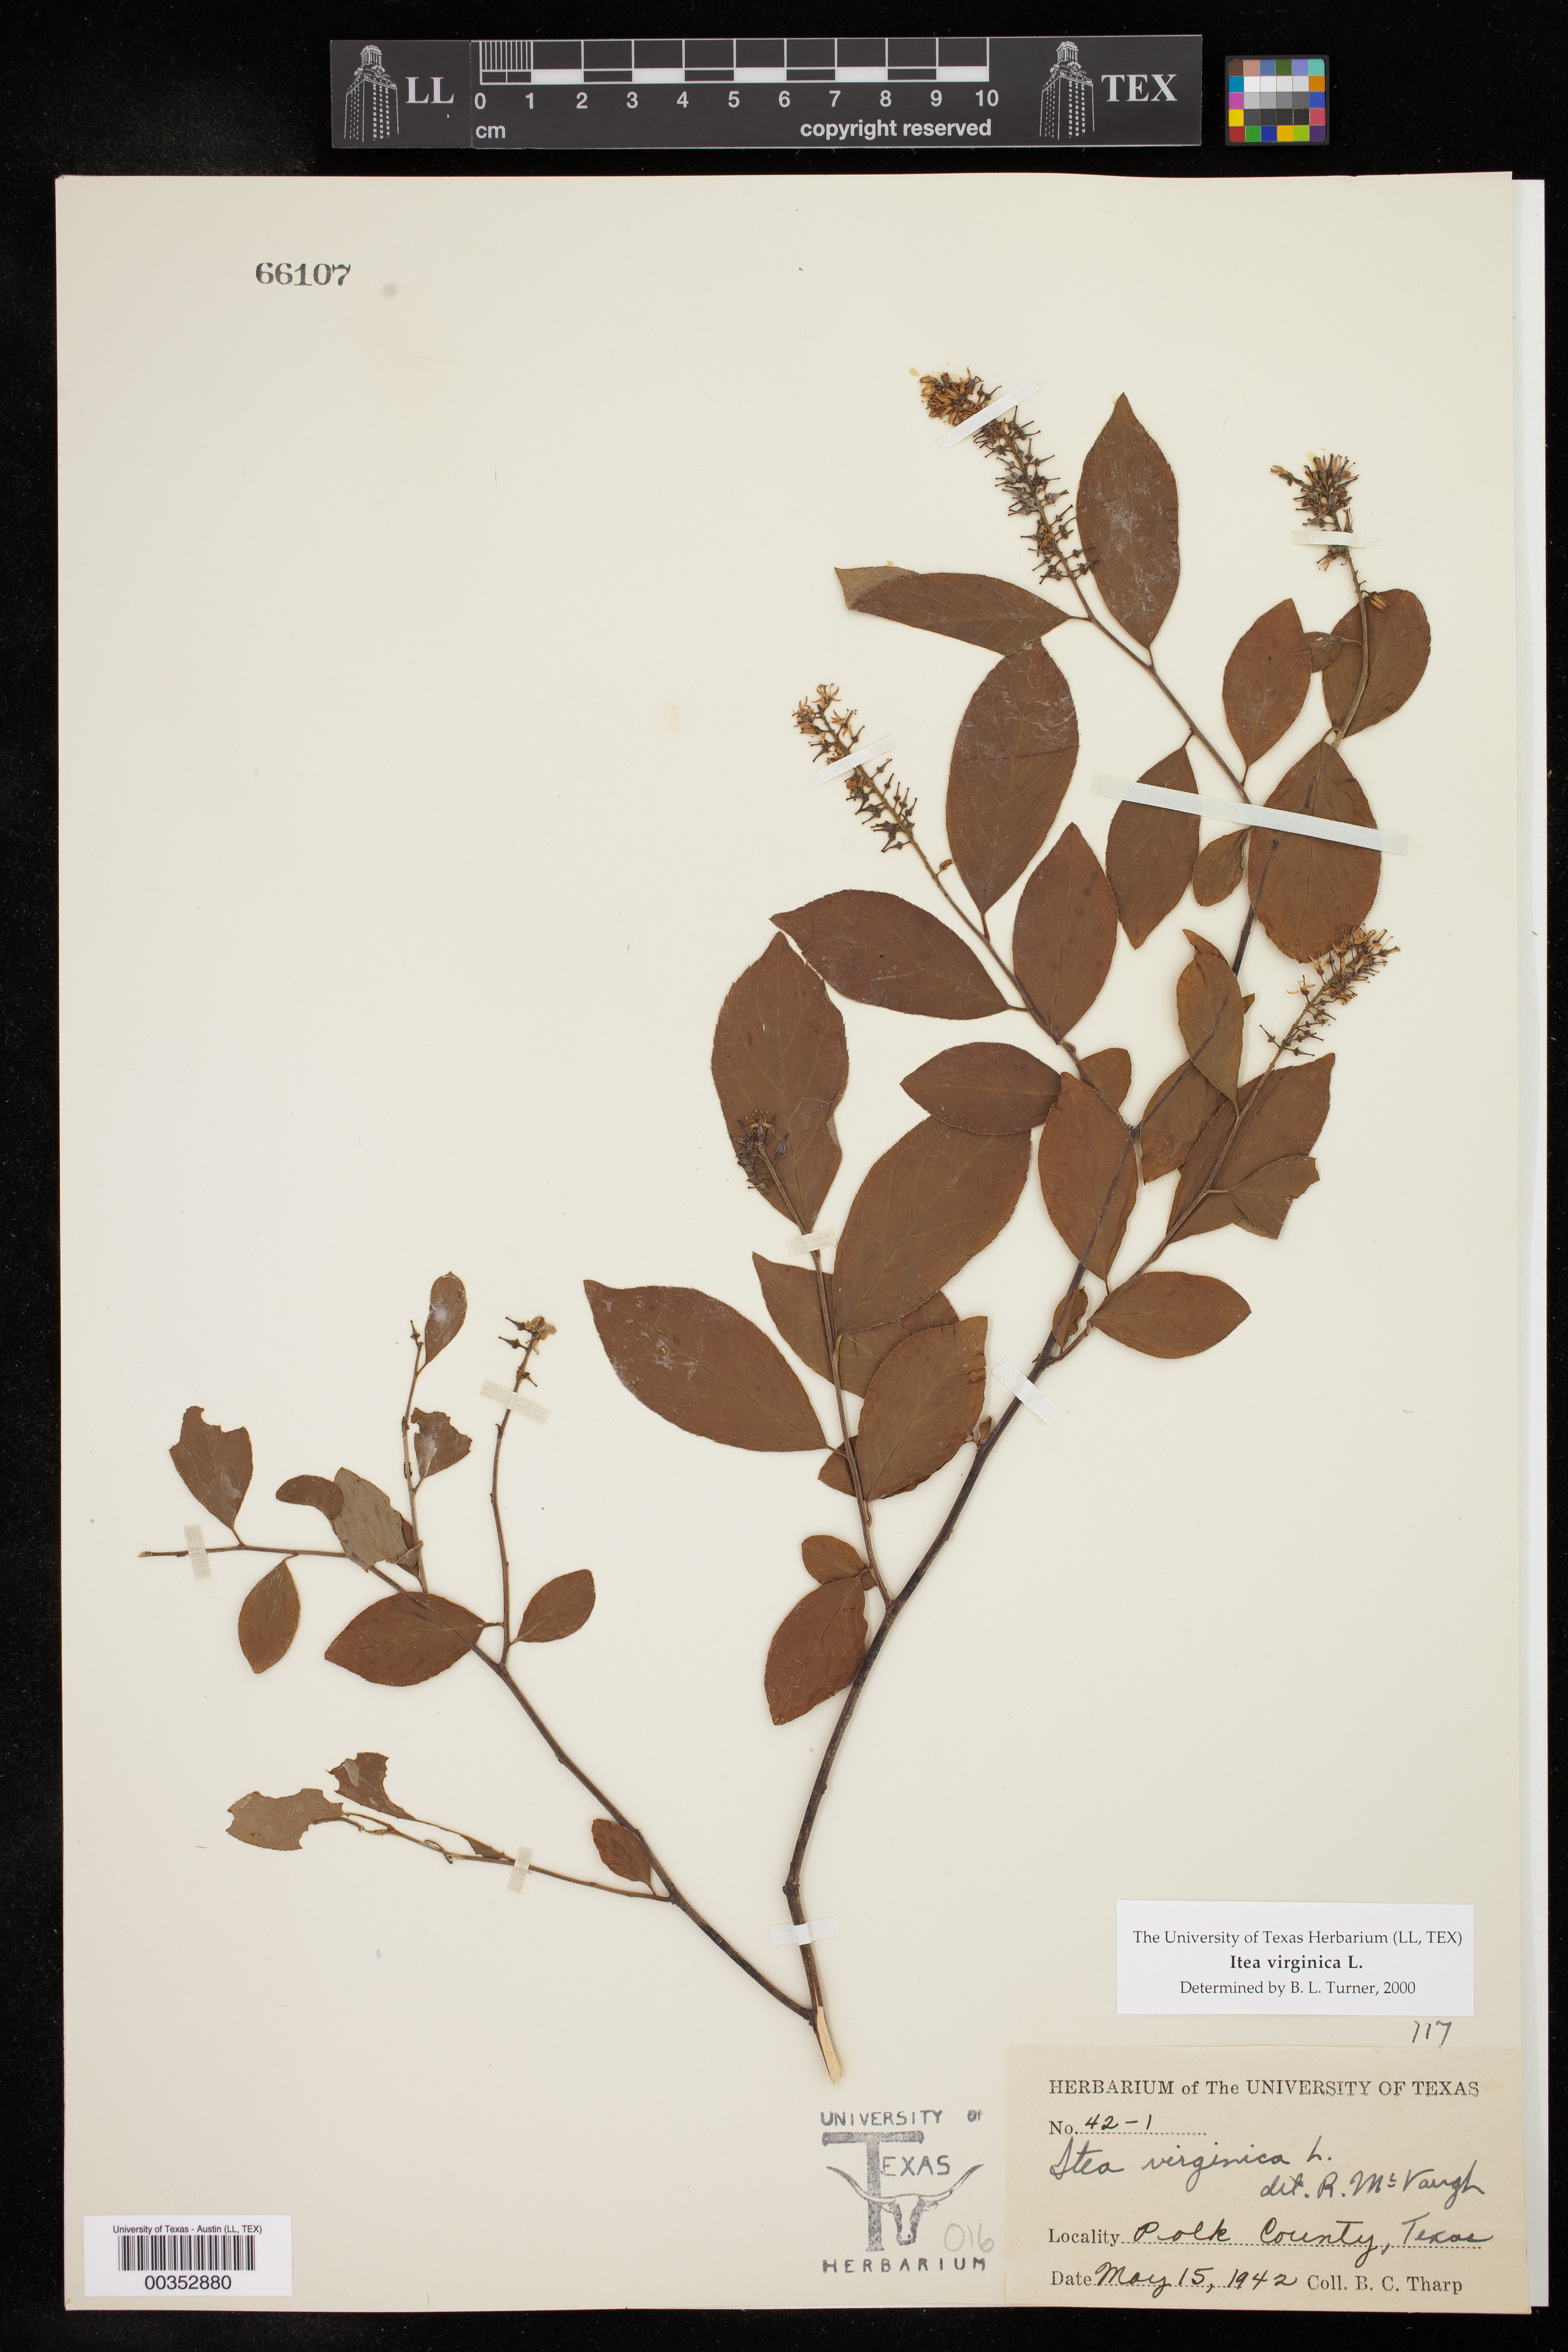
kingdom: Plantae
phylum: Tracheophyta
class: Magnoliopsida
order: Saxifragales
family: Iteaceae
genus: Itea
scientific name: Itea virginica
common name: Sweetspire
